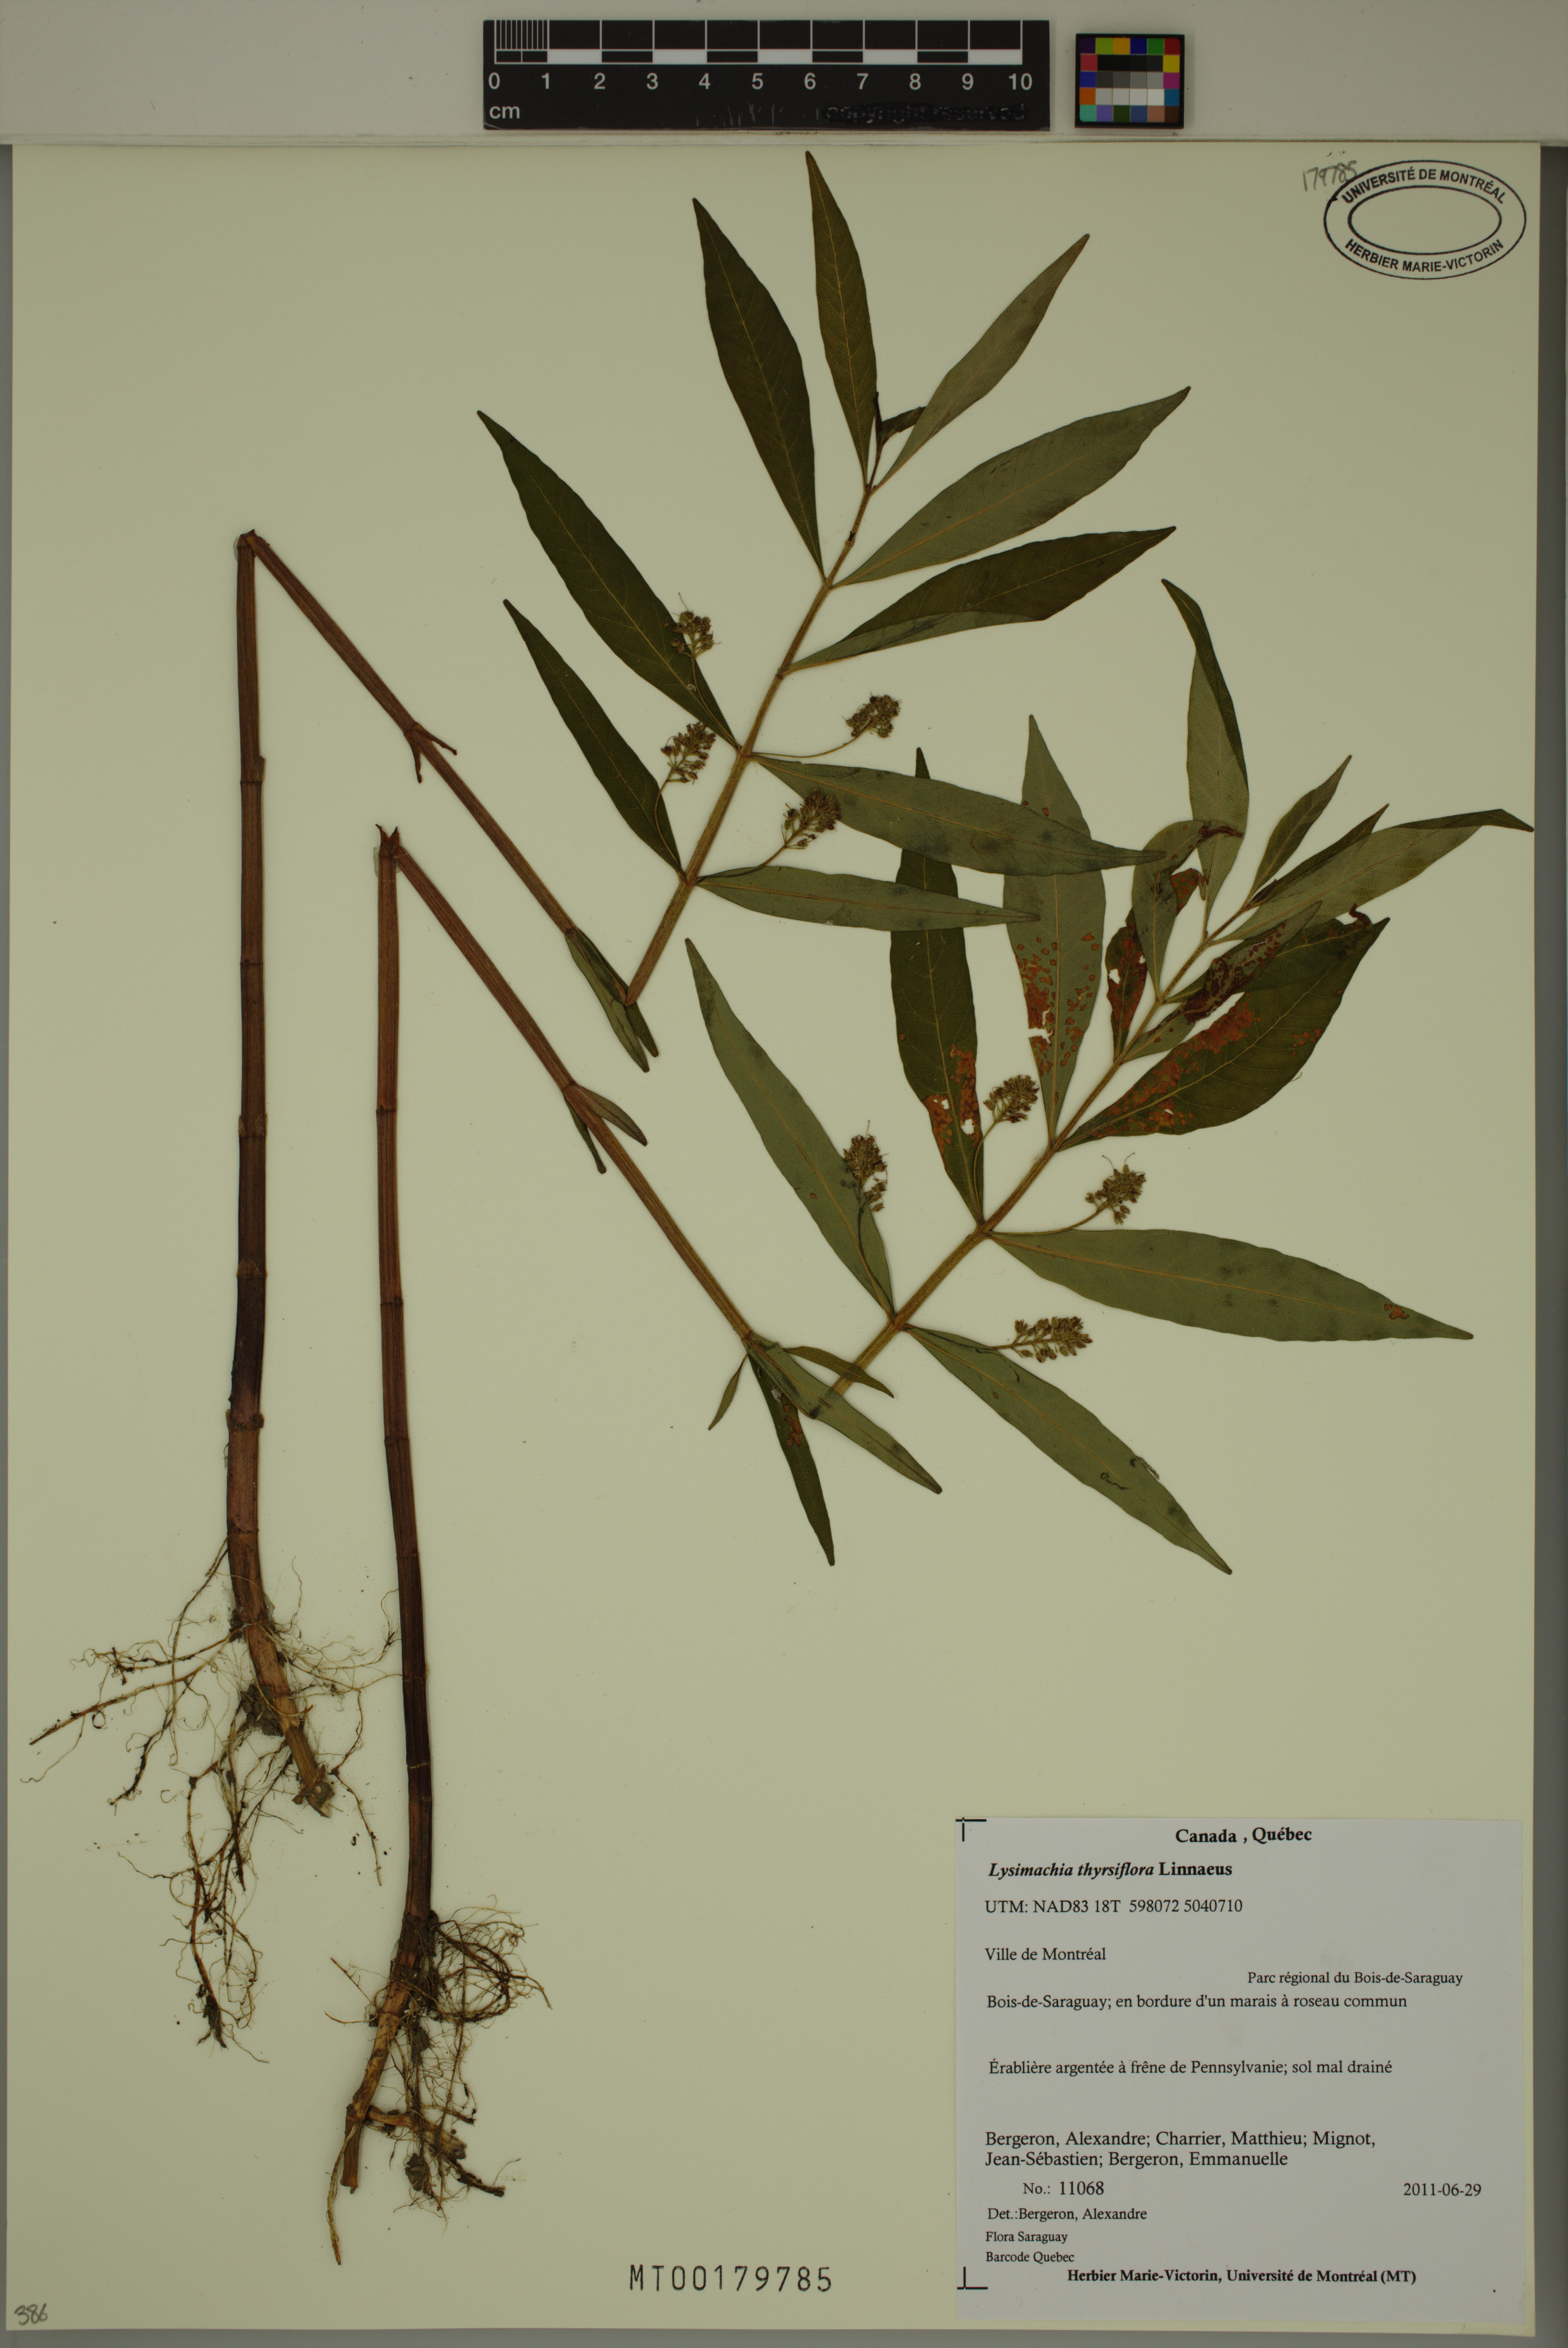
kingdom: Plantae
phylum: Tracheophyta
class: Magnoliopsida
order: Ericales
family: Primulaceae
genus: Lysimachia
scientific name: Lysimachia thyrsiflora
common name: Tufted loosestrife
